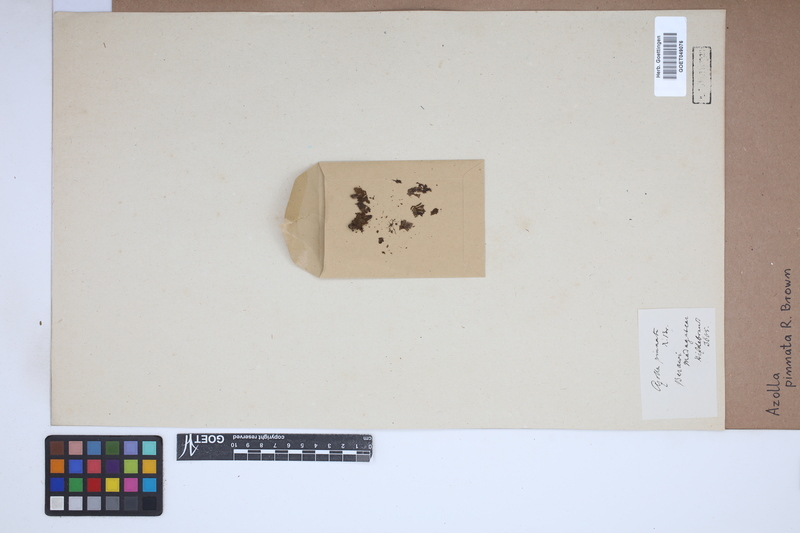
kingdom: Plantae
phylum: Tracheophyta
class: Polypodiopsida
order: Salviniales
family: Salviniaceae
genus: Azolla
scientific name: Azolla pinnata
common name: Ferny azolla
